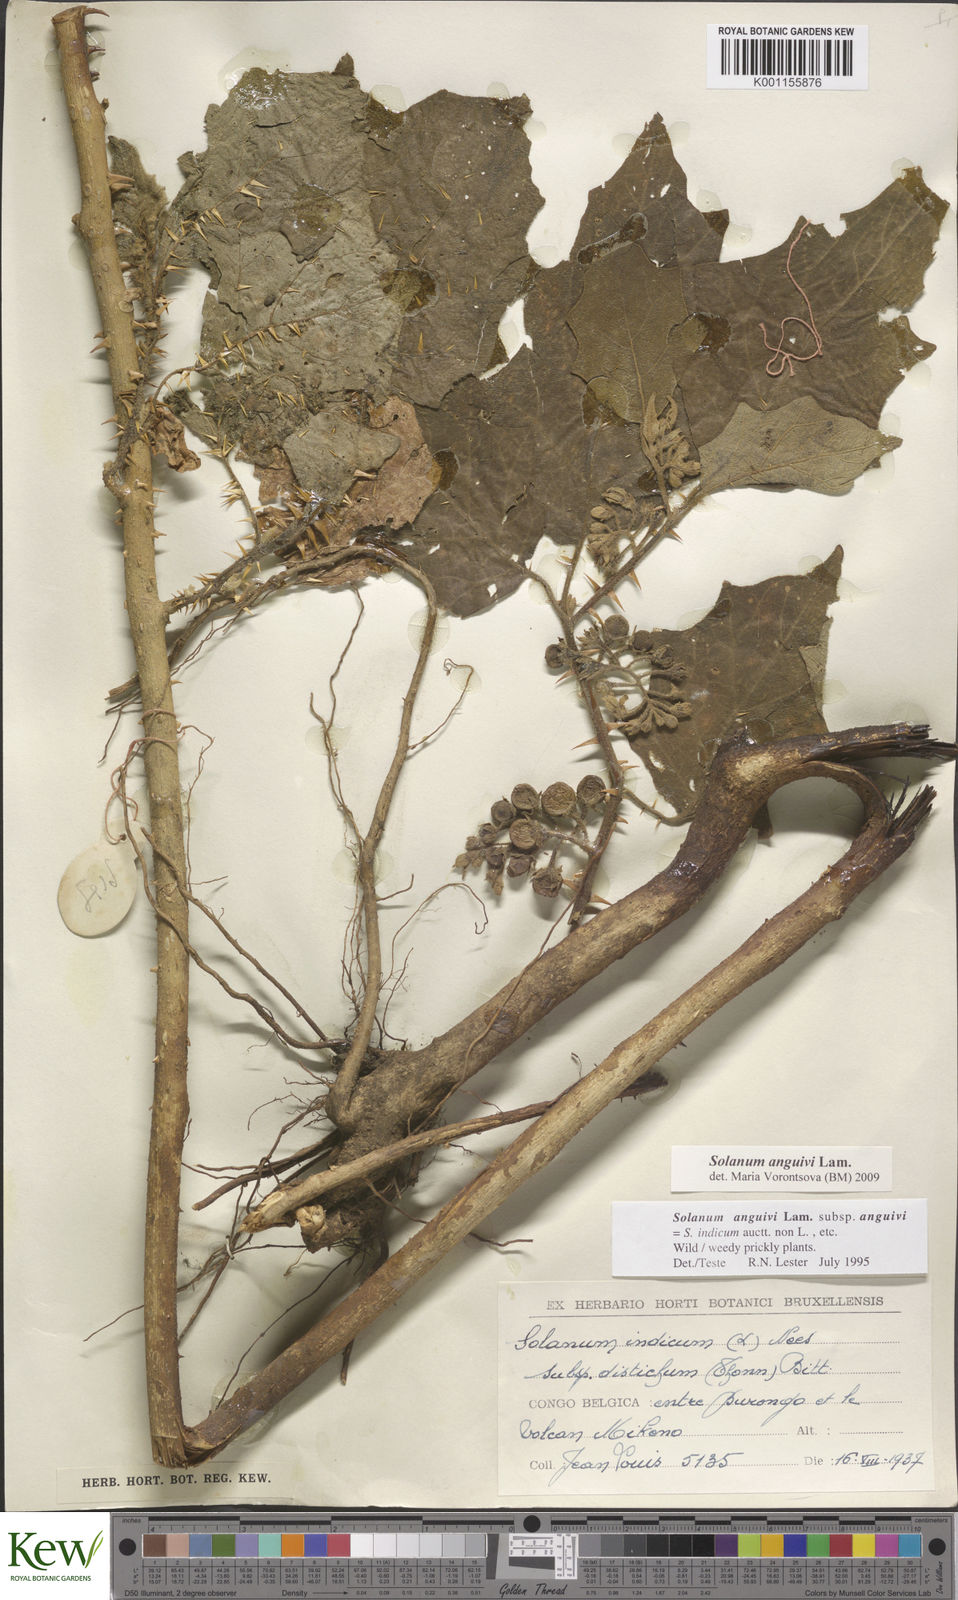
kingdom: Plantae
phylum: Tracheophyta
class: Magnoliopsida
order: Solanales
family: Solanaceae
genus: Solanum
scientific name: Solanum anguivi
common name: Forest bitterberry
